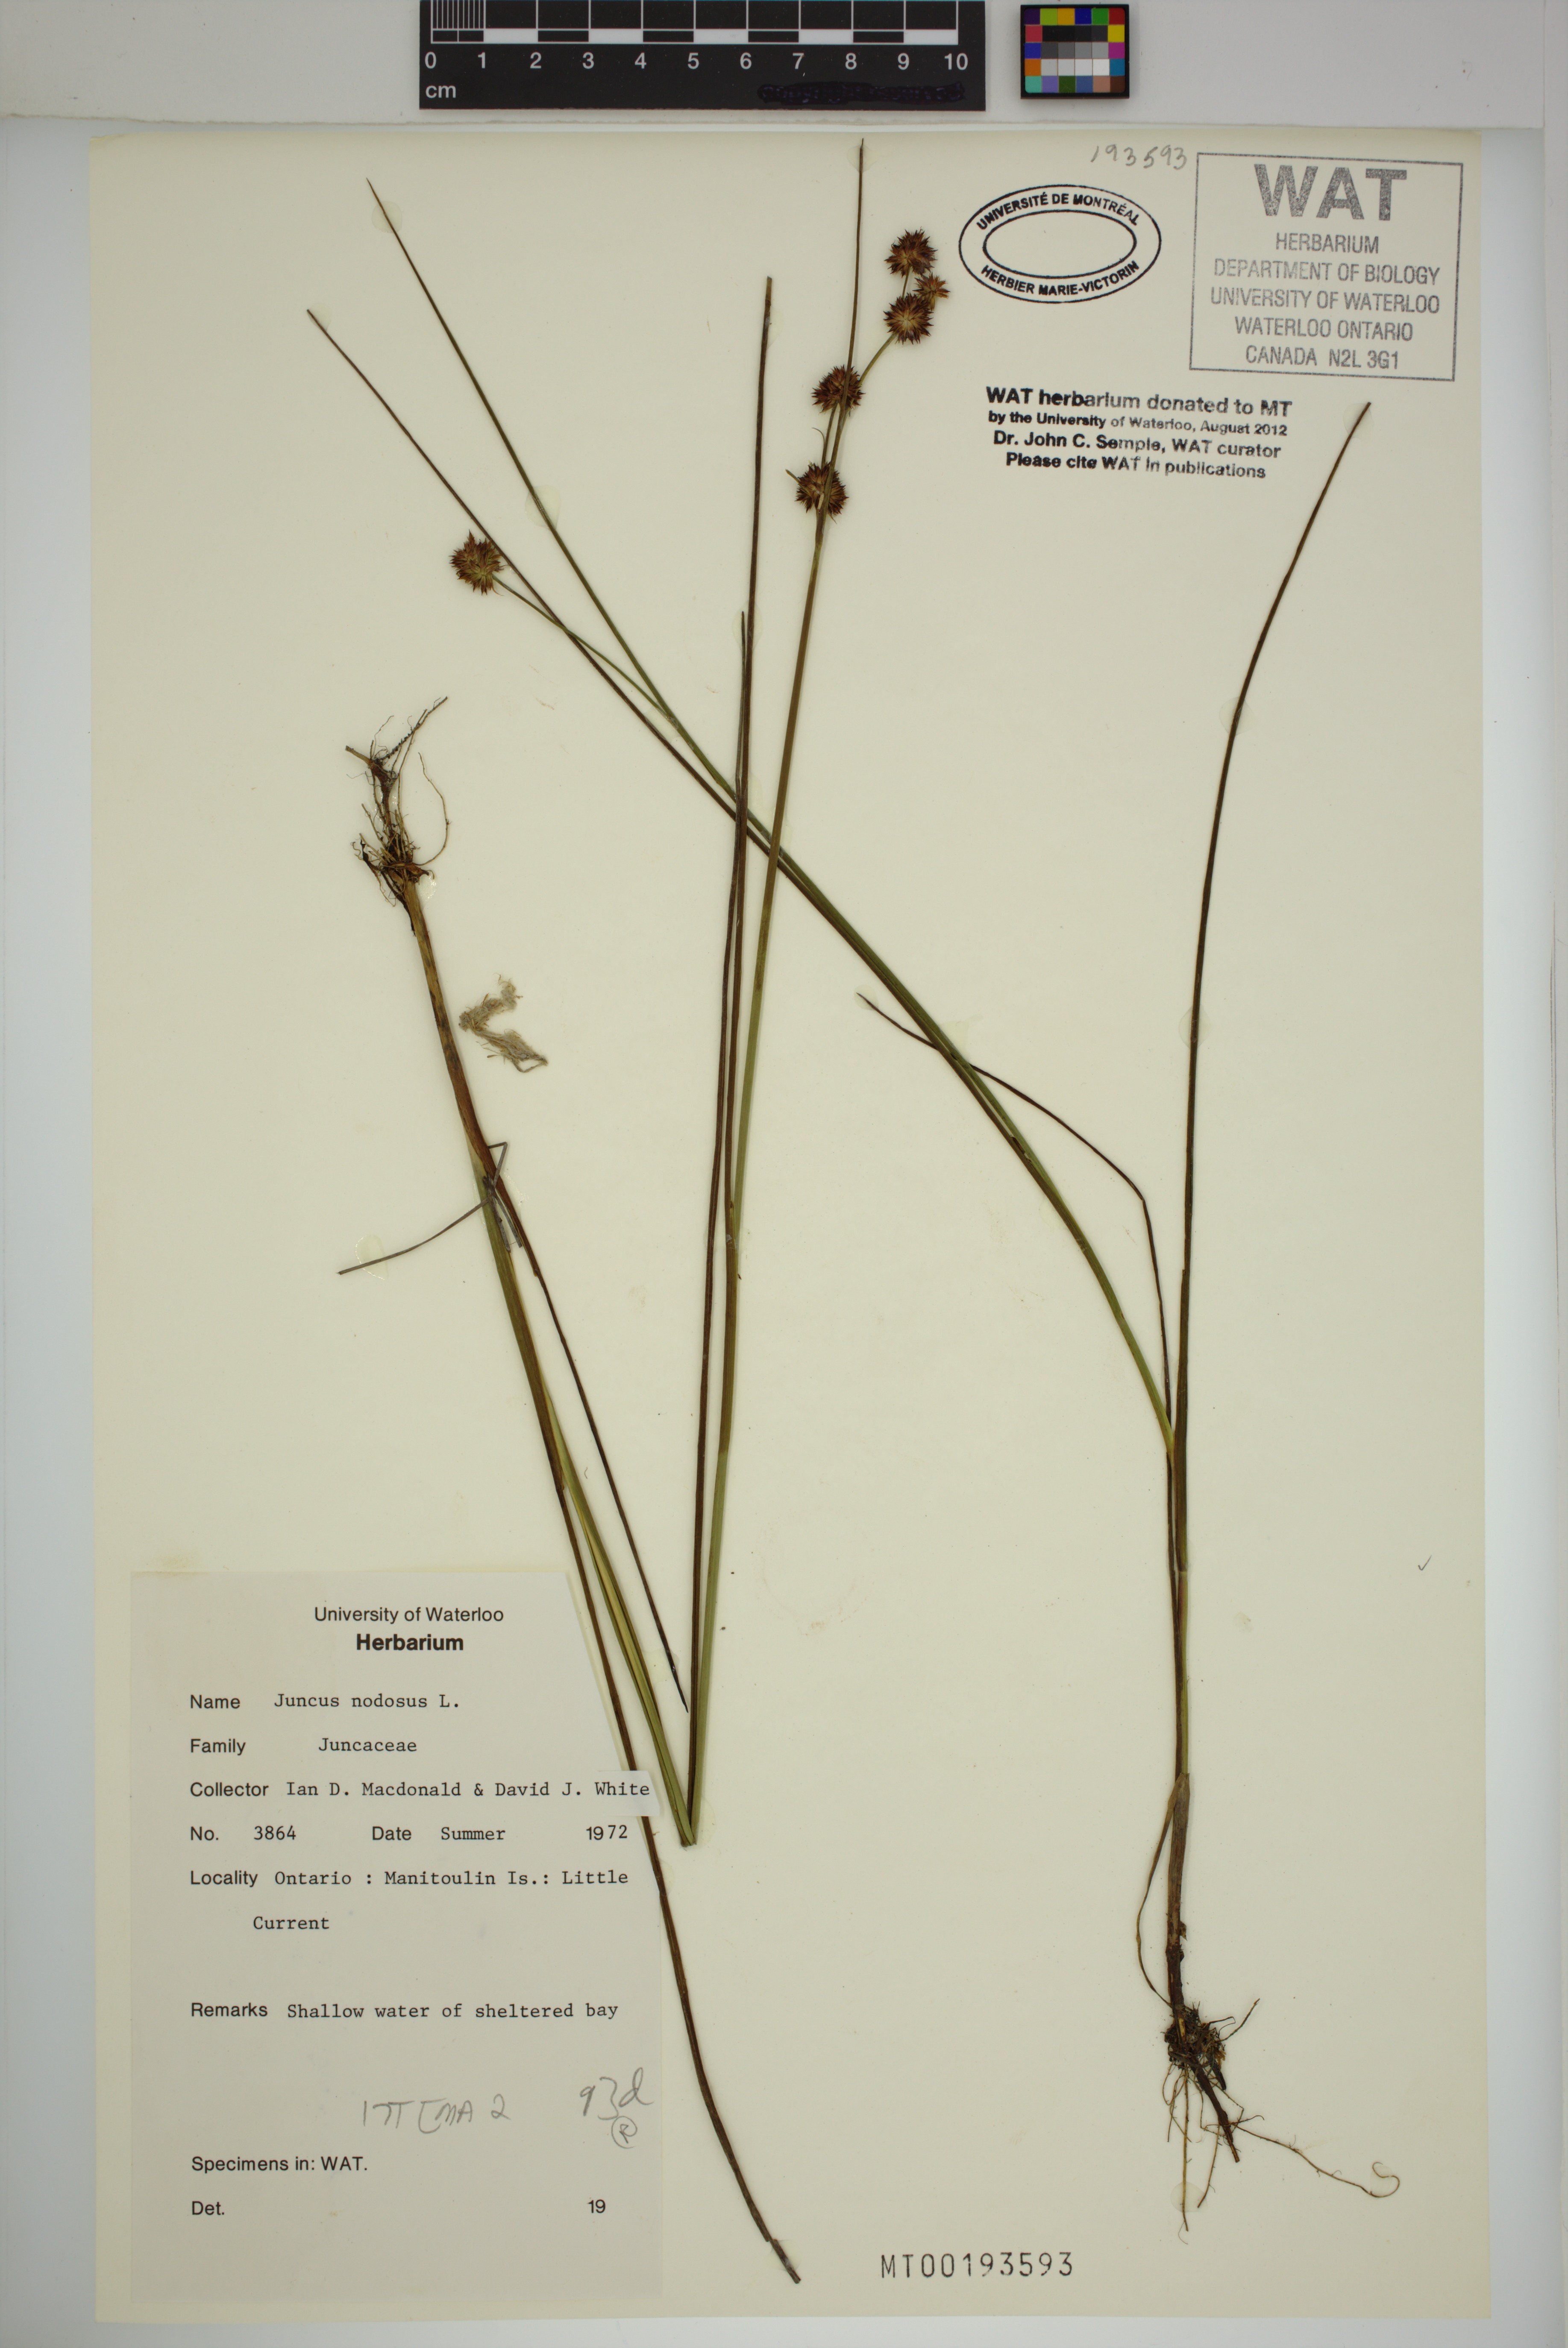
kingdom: Plantae
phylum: Tracheophyta
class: Liliopsida
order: Poales
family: Juncaceae
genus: Juncus
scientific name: Juncus nodosus
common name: Knotted rush
